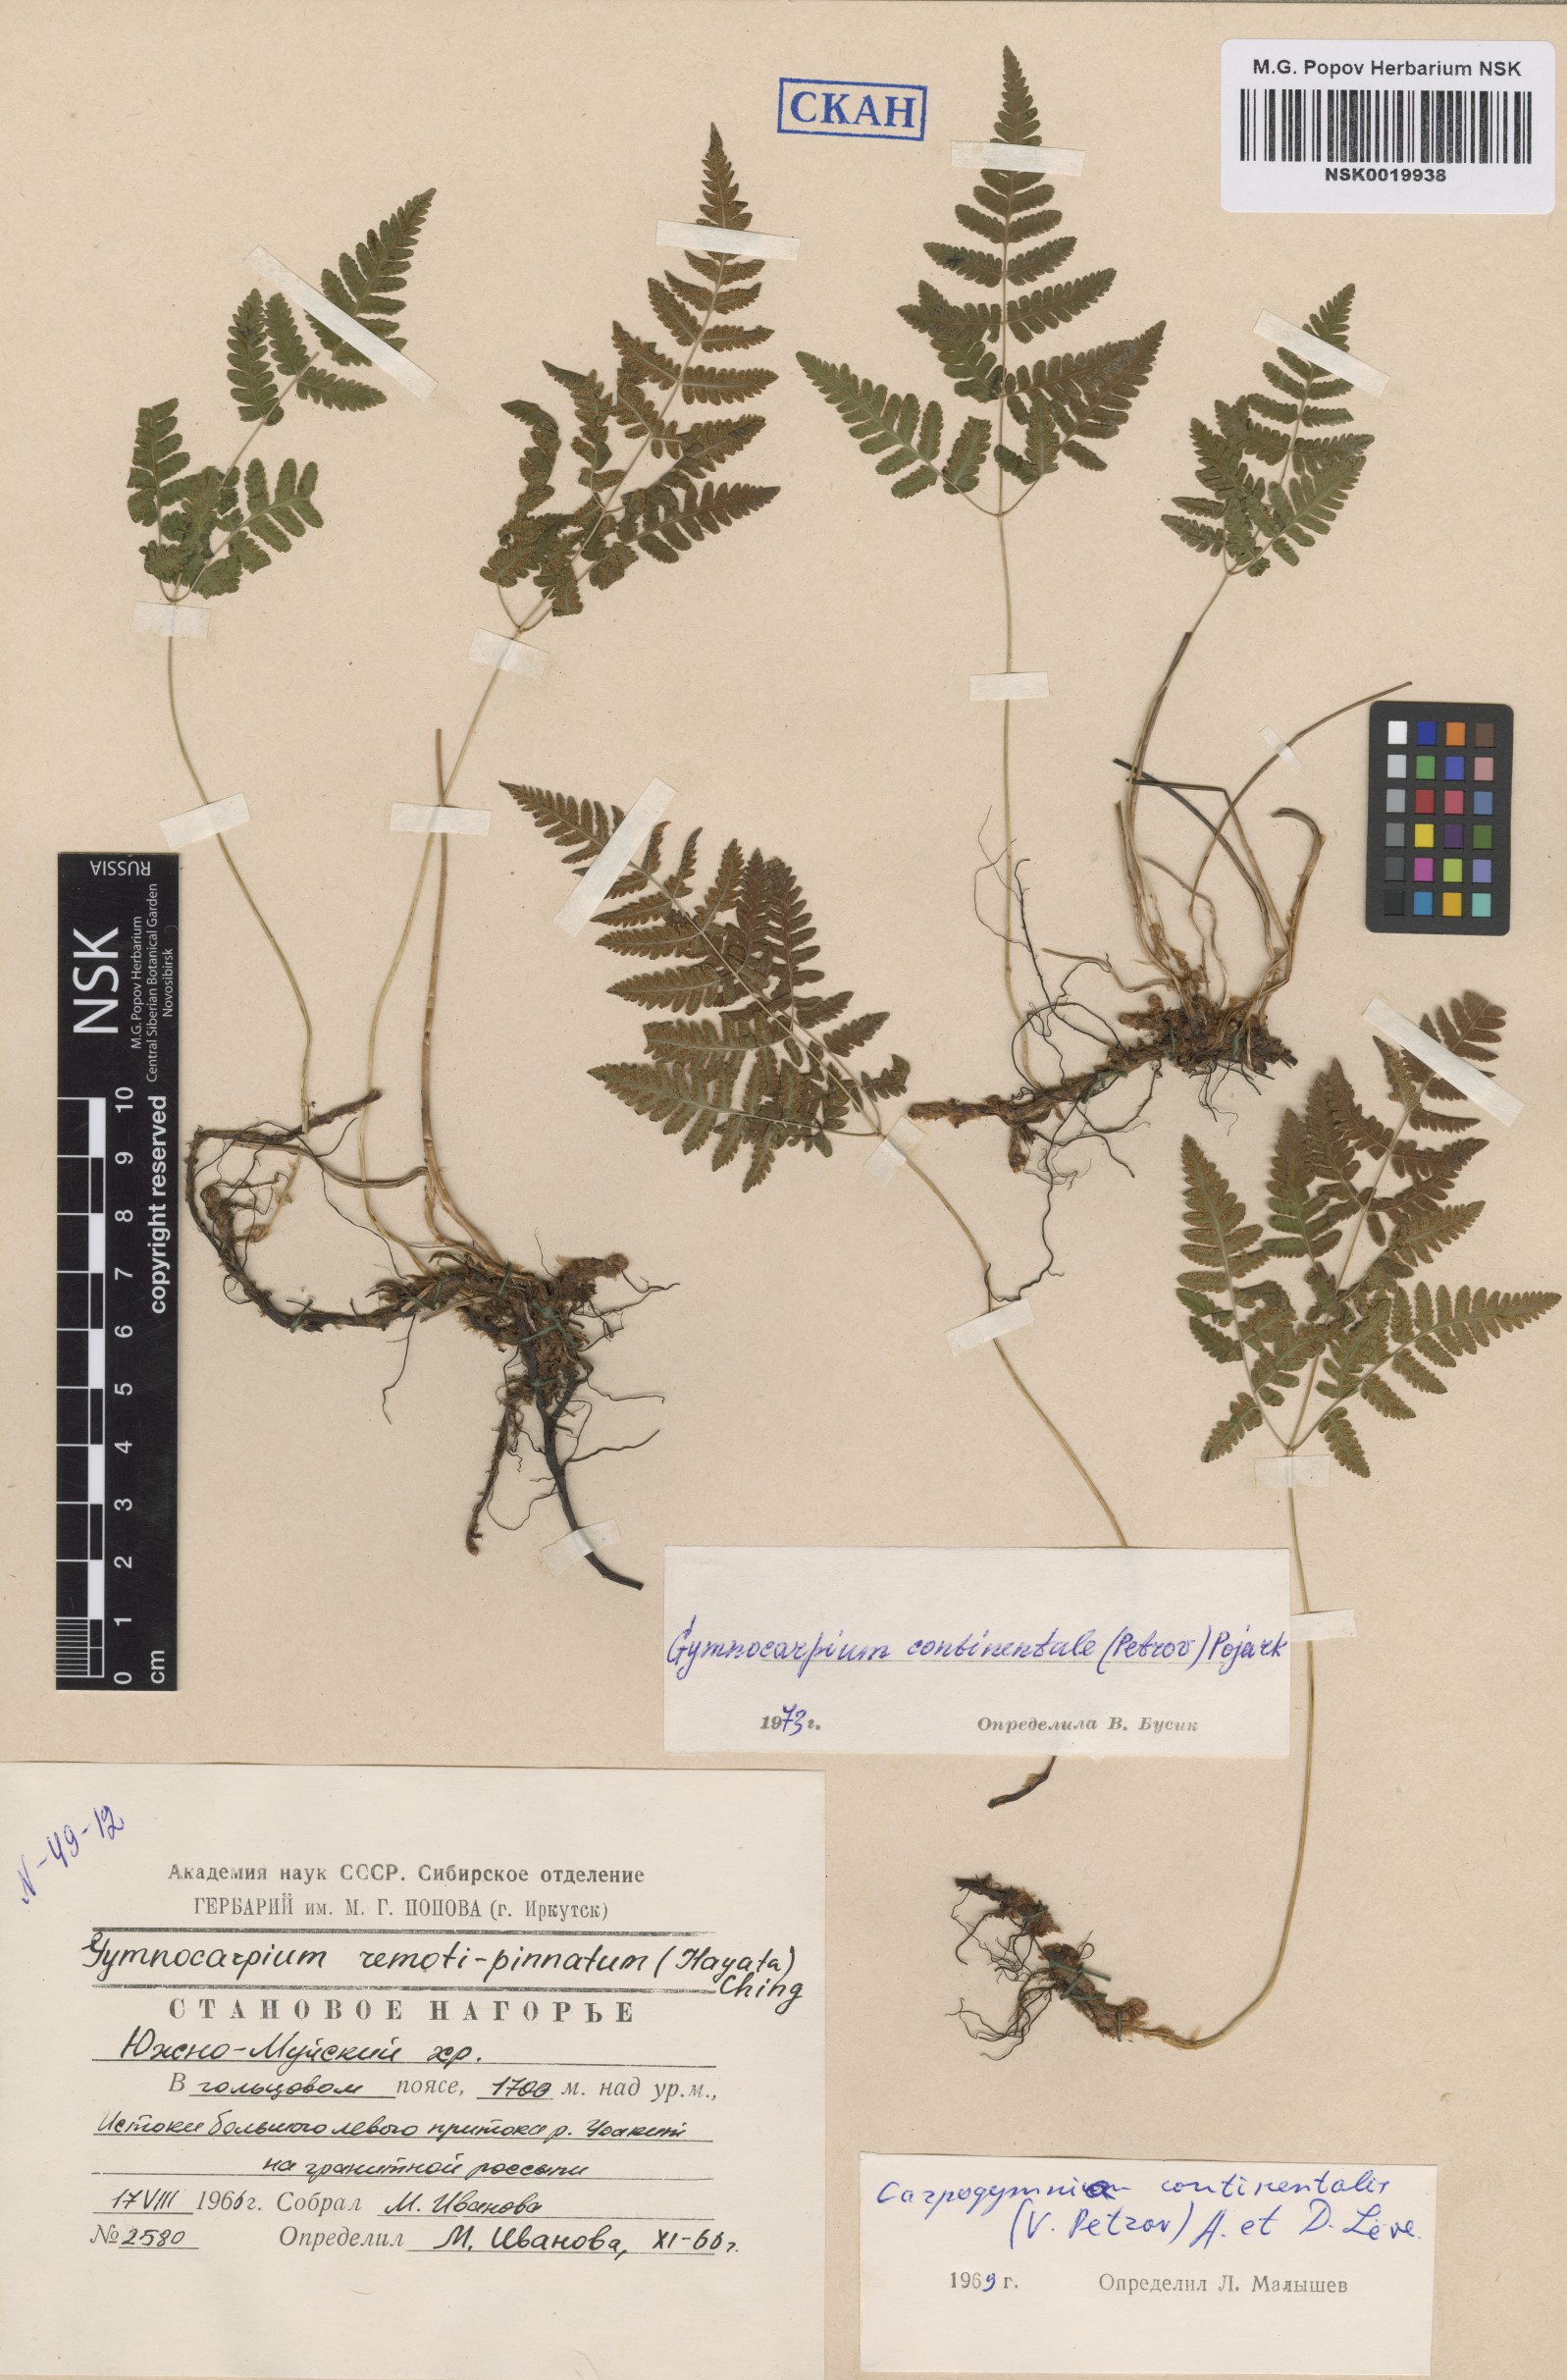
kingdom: Plantae
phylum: Tracheophyta
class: Polypodiopsida
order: Polypodiales
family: Cystopteridaceae
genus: Gymnocarpium
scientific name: Gymnocarpium continentale
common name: Asian oak fern
